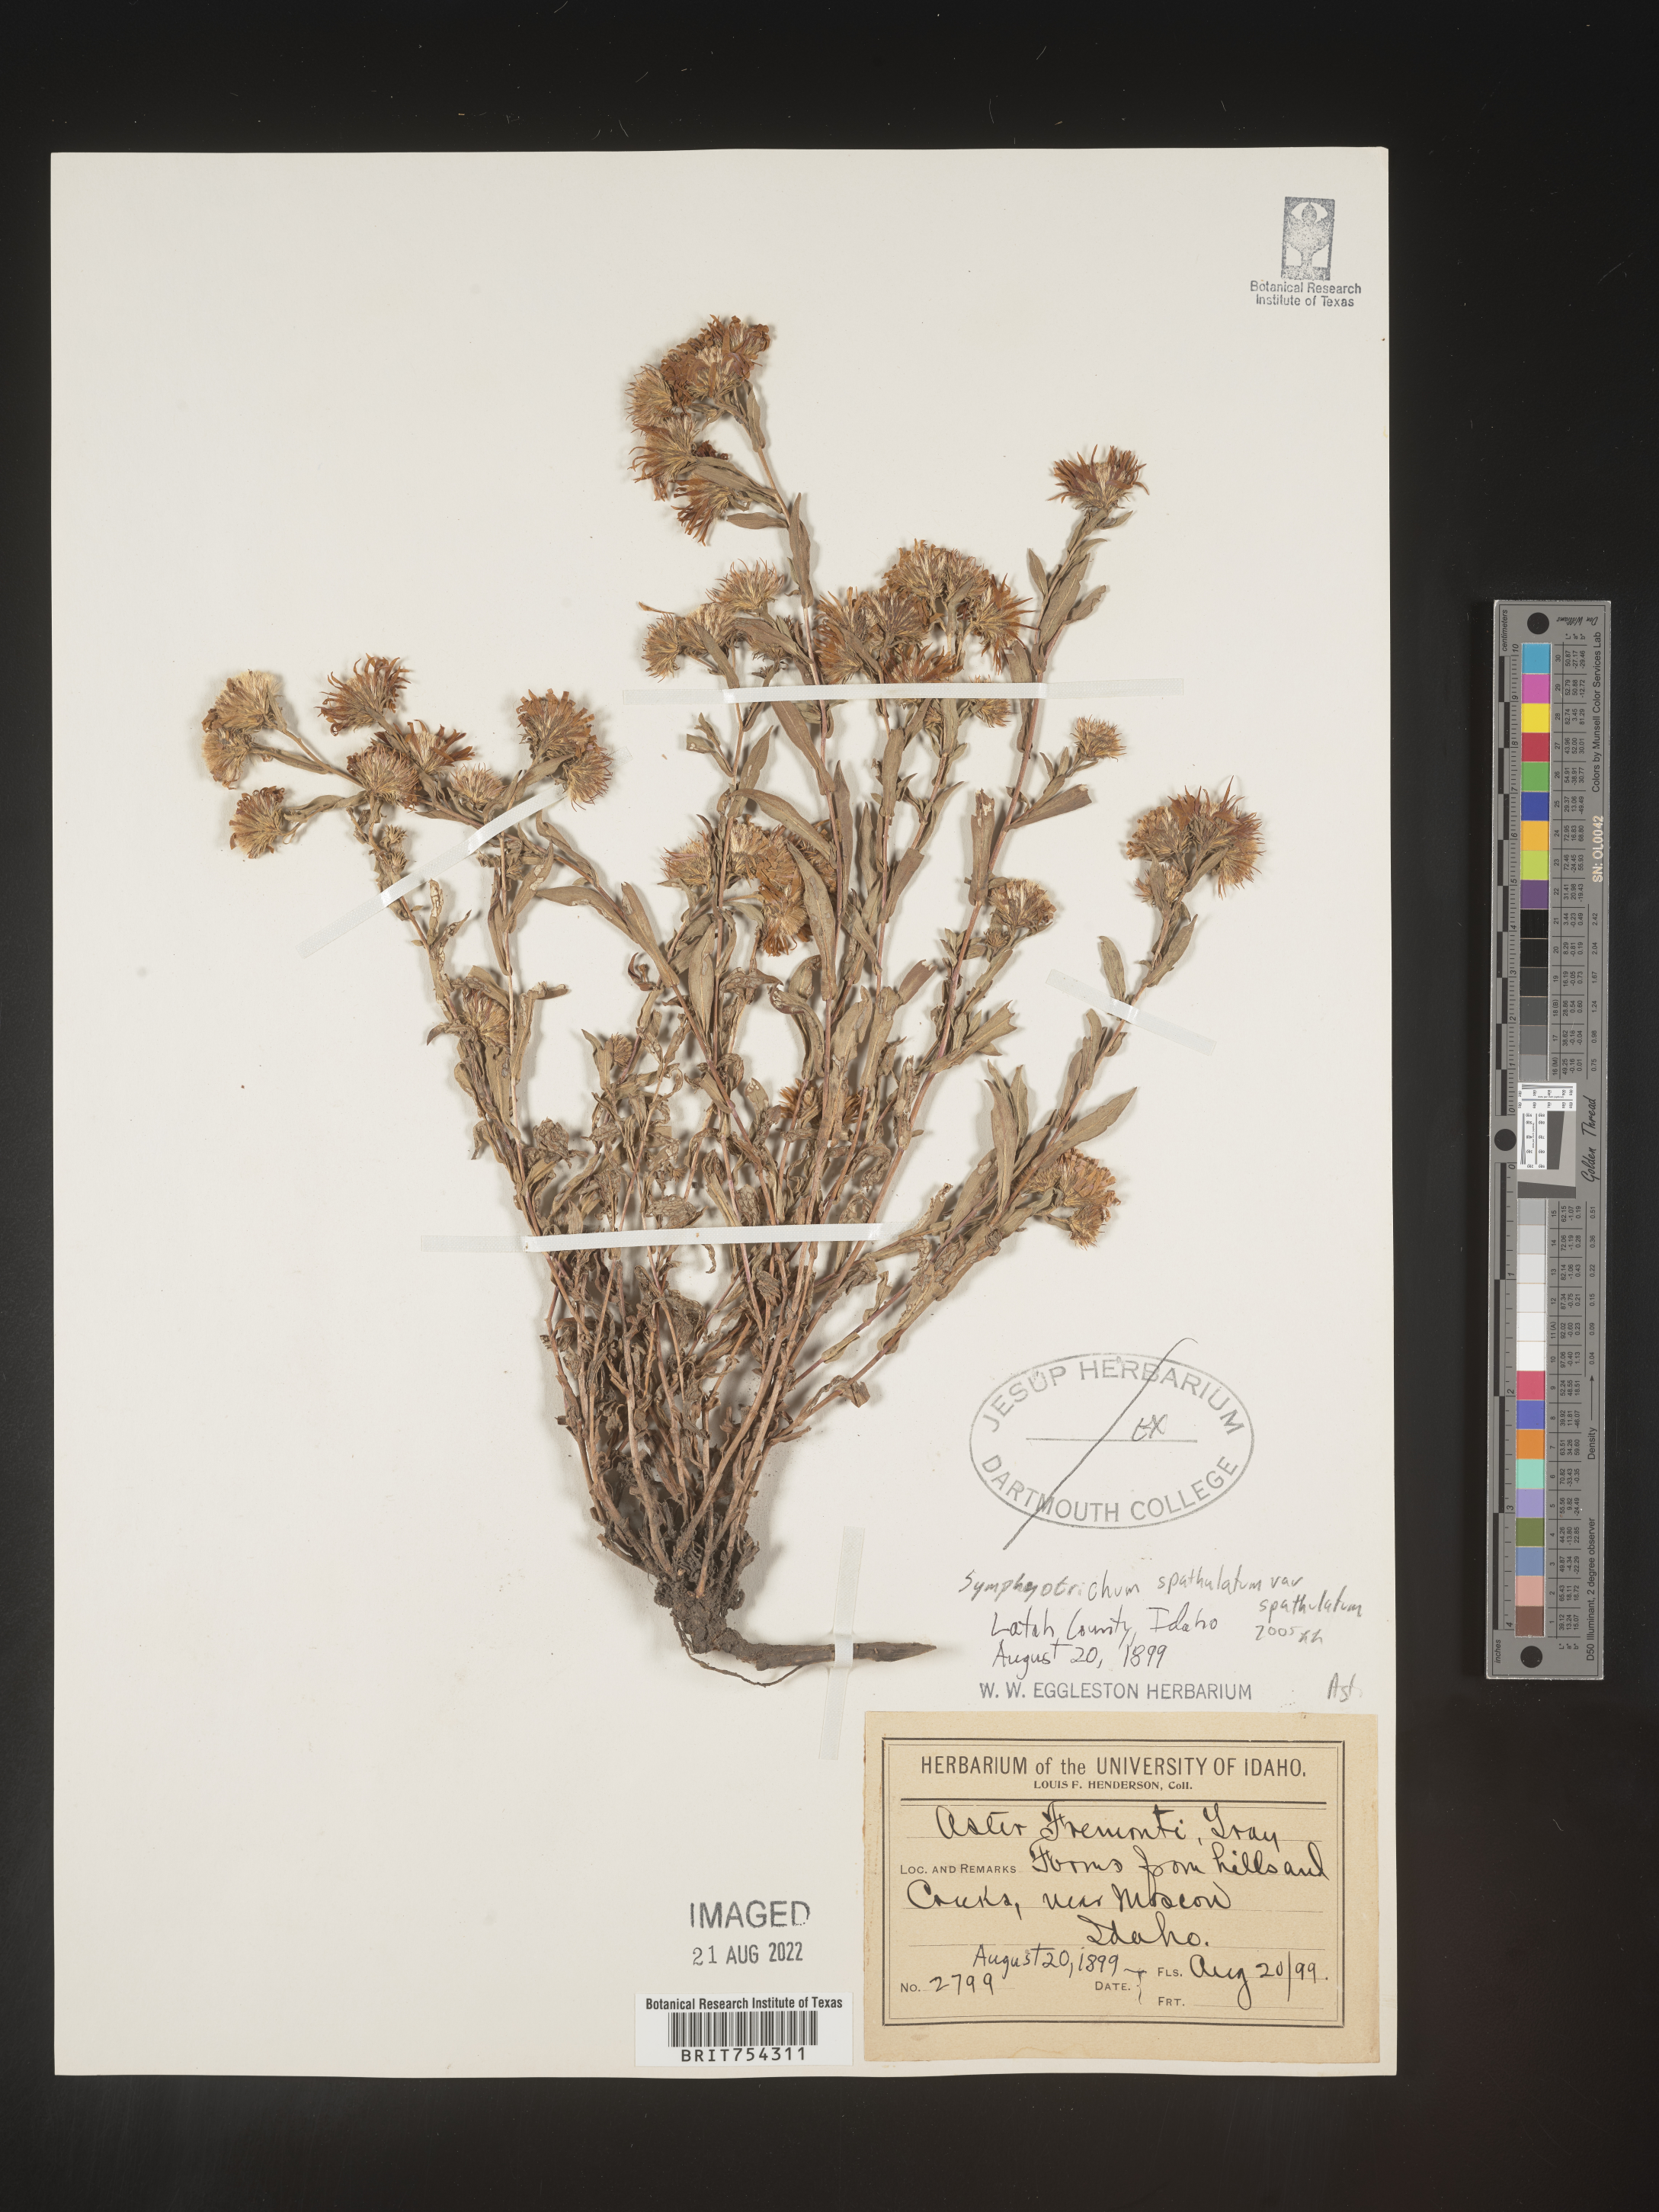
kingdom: Plantae
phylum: Tracheophyta
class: Magnoliopsida
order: Asterales
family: Asteraceae
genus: Symphyotrichum
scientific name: Symphyotrichum subspicatum
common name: Douglas' aster
